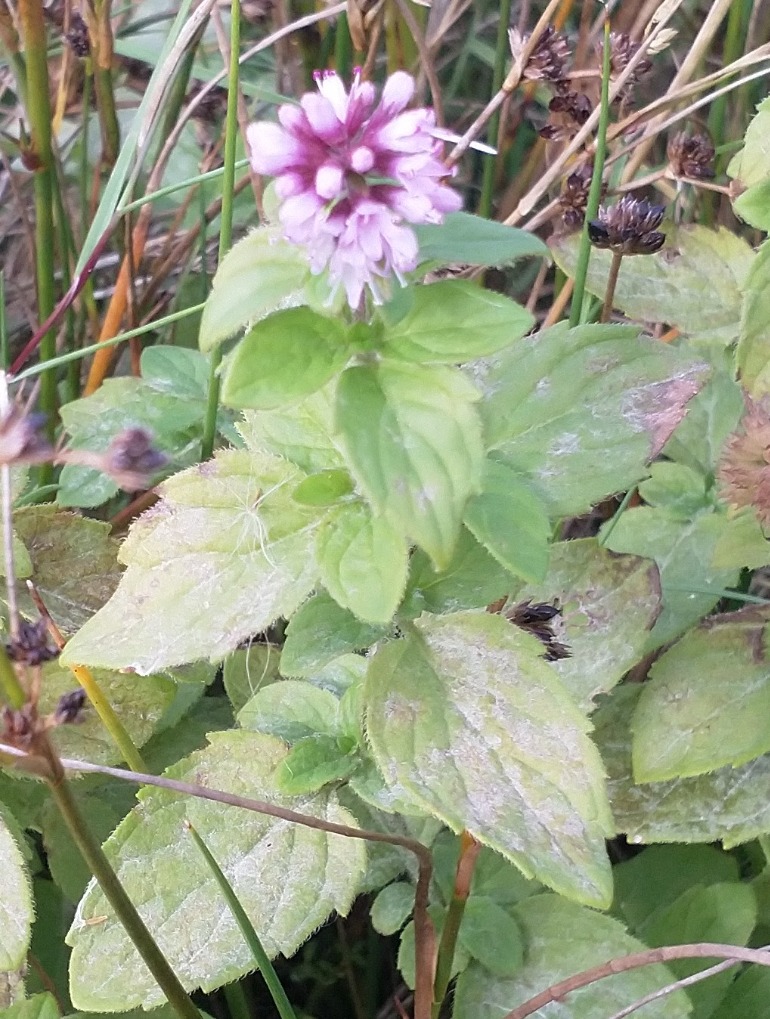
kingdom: Plantae
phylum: Tracheophyta
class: Magnoliopsida
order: Lamiales
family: Lamiaceae
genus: Mentha
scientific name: Mentha aquatica
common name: Vand-mynte
